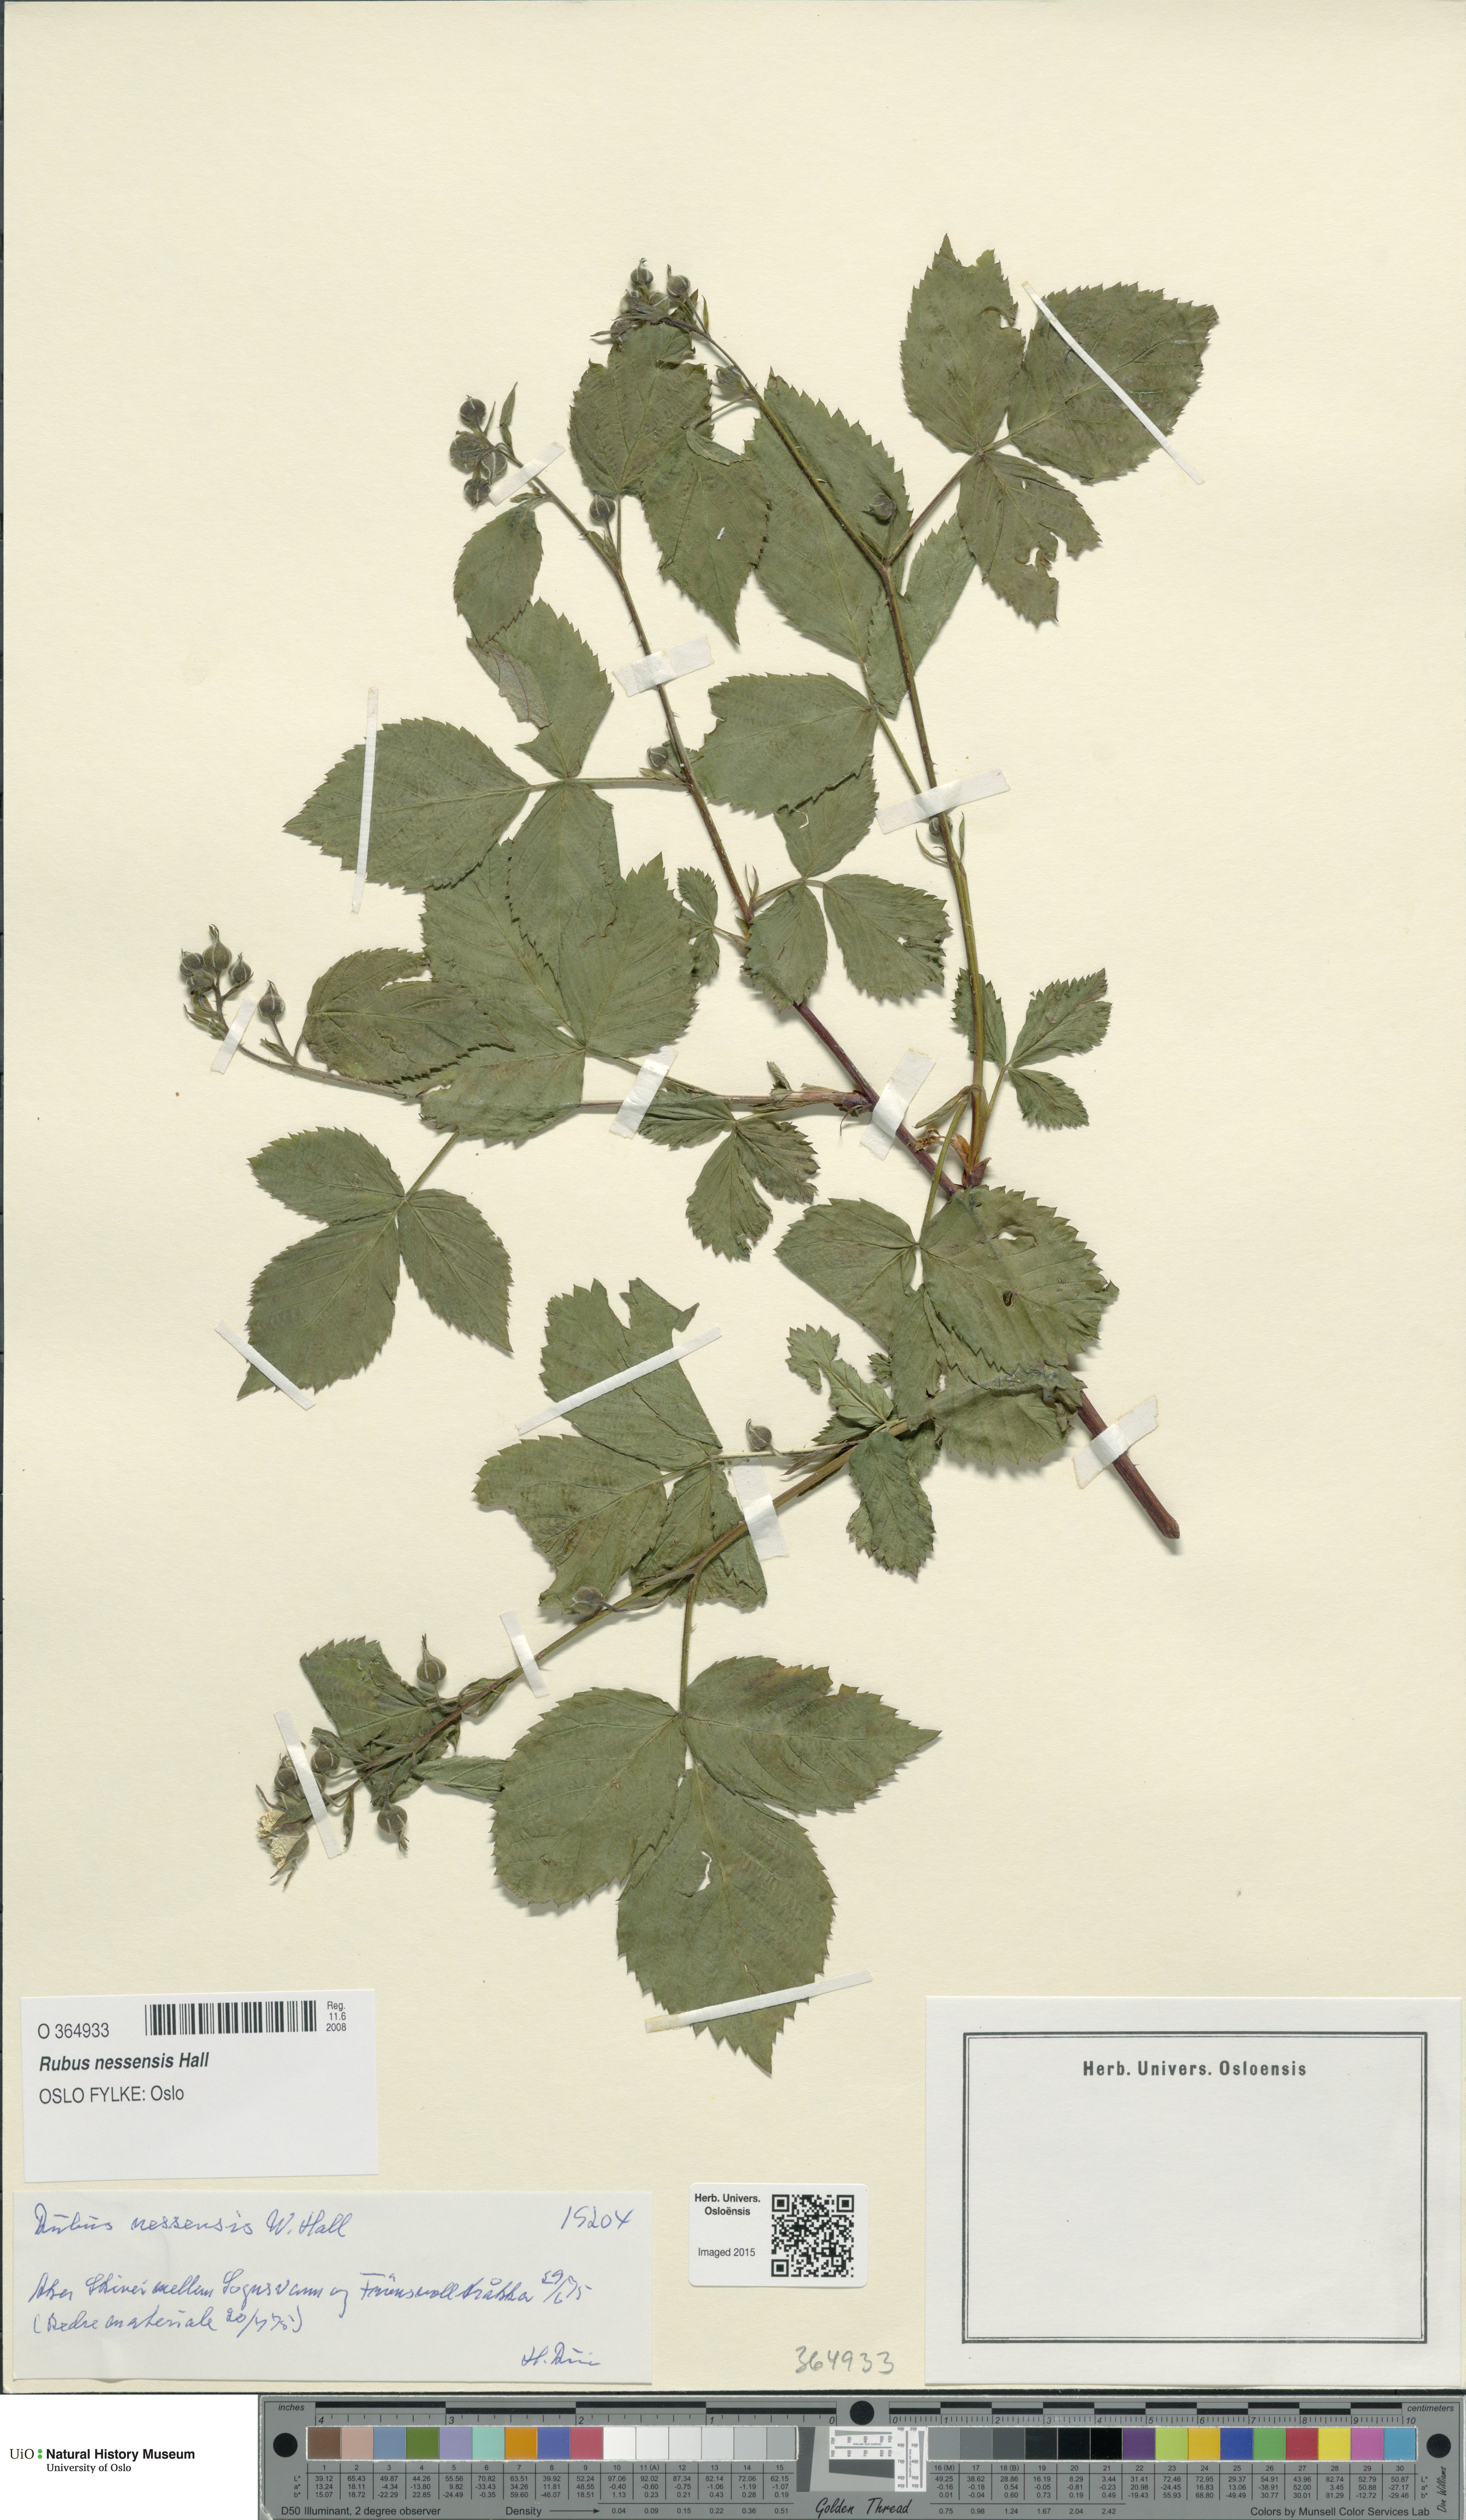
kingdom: Plantae
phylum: Tracheophyta
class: Magnoliopsida
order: Rosales
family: Rosaceae
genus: Rubus
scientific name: Rubus polonicus
